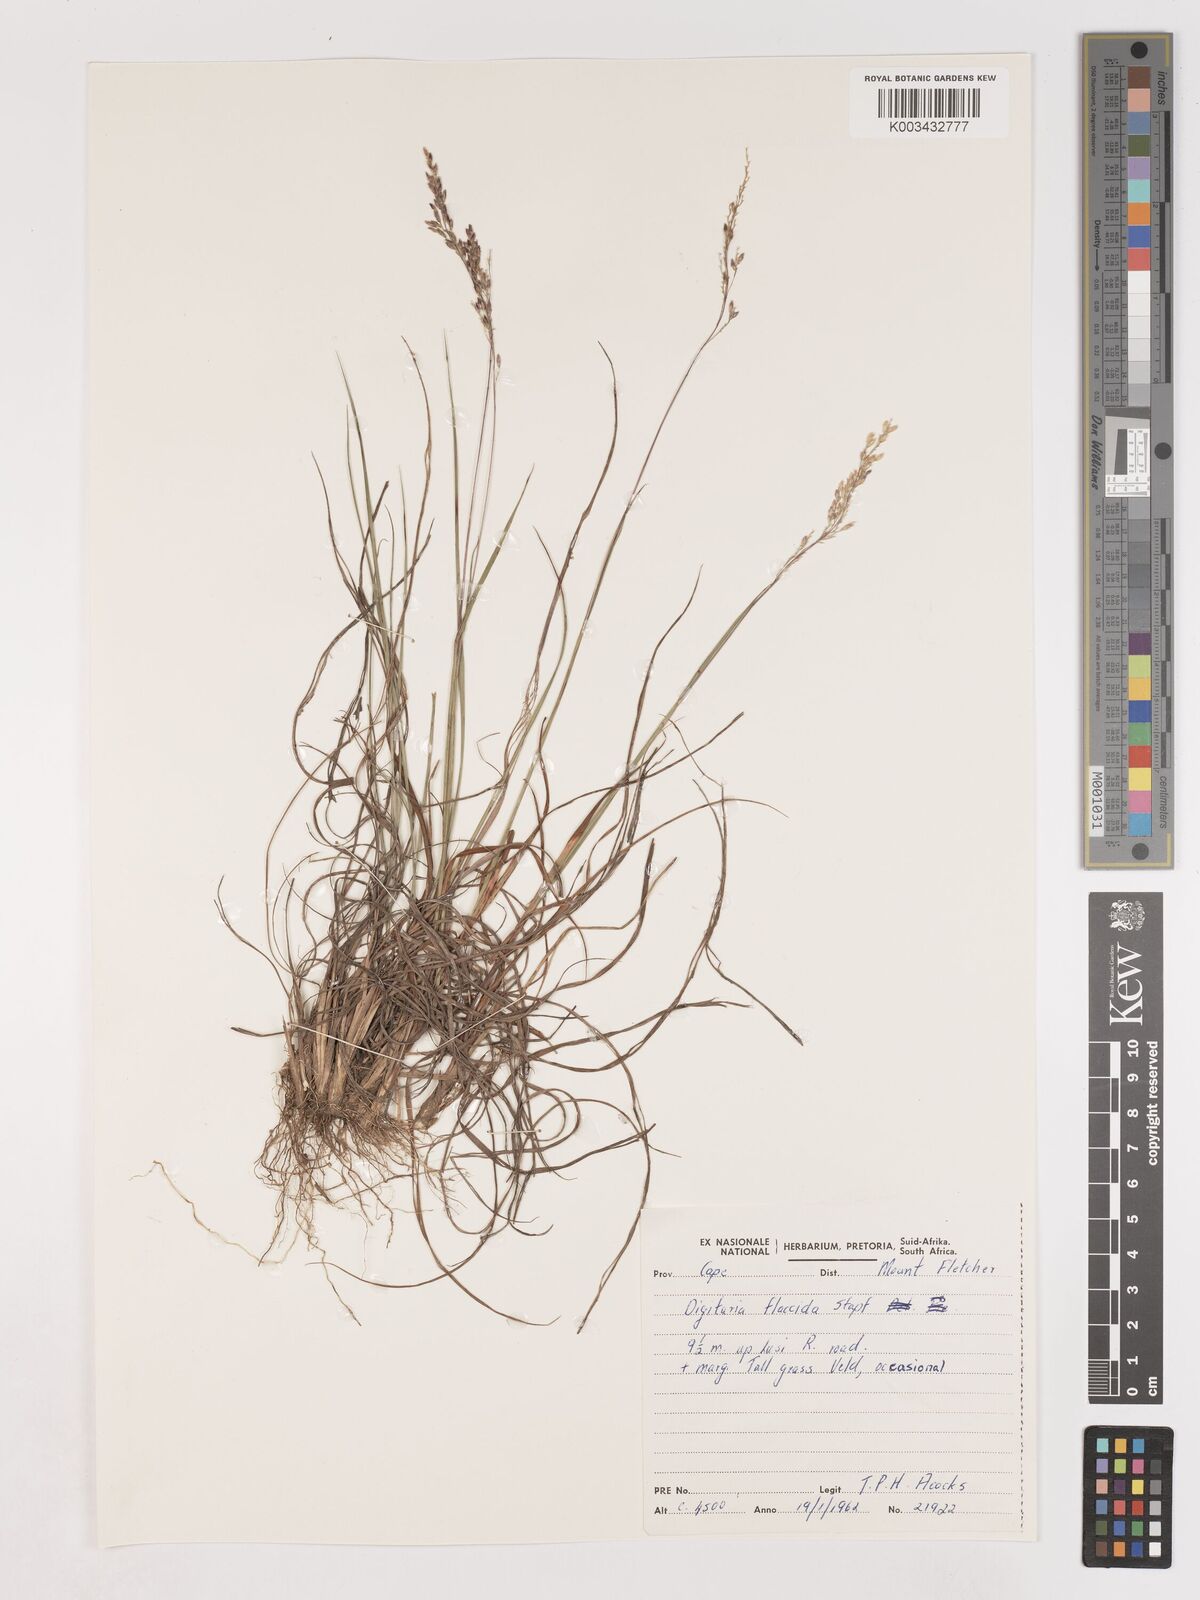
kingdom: Plantae
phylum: Tracheophyta
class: Liliopsida
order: Poales
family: Poaceae
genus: Digitaria
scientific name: Digitaria flaccida
